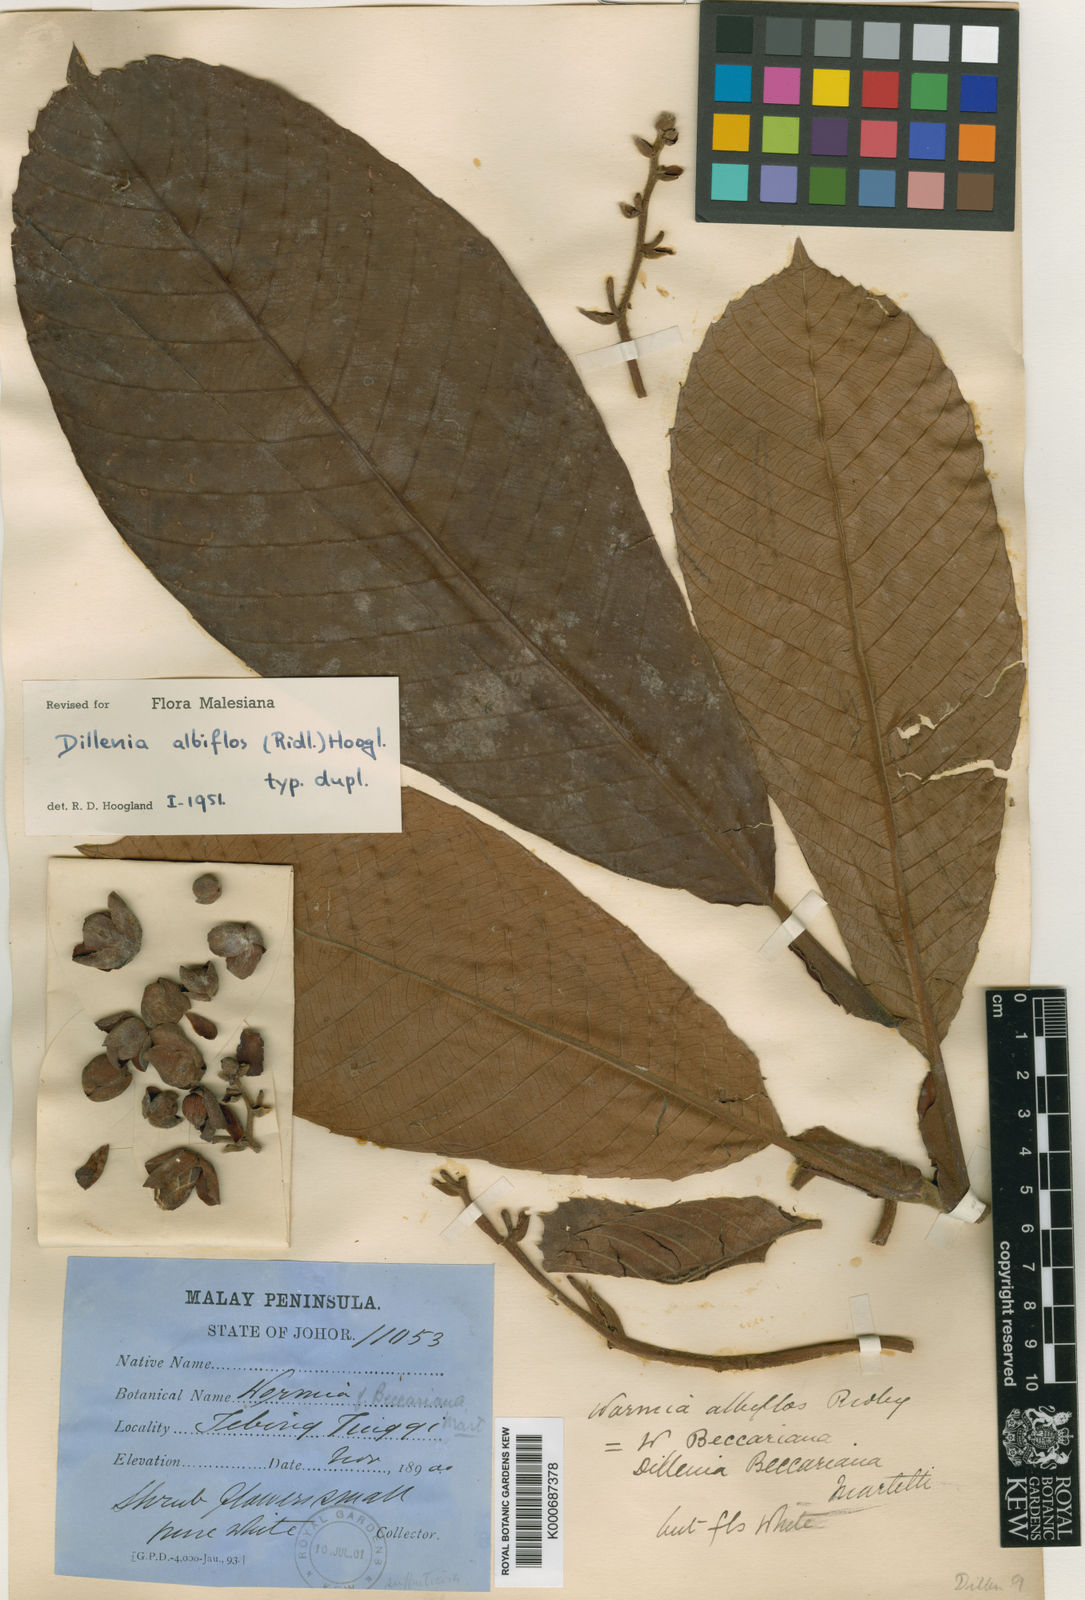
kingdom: Plantae
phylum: Tracheophyta
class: Magnoliopsida
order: Dilleniales
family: Dilleniaceae
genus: Dillenia
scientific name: Dillenia albiflos
